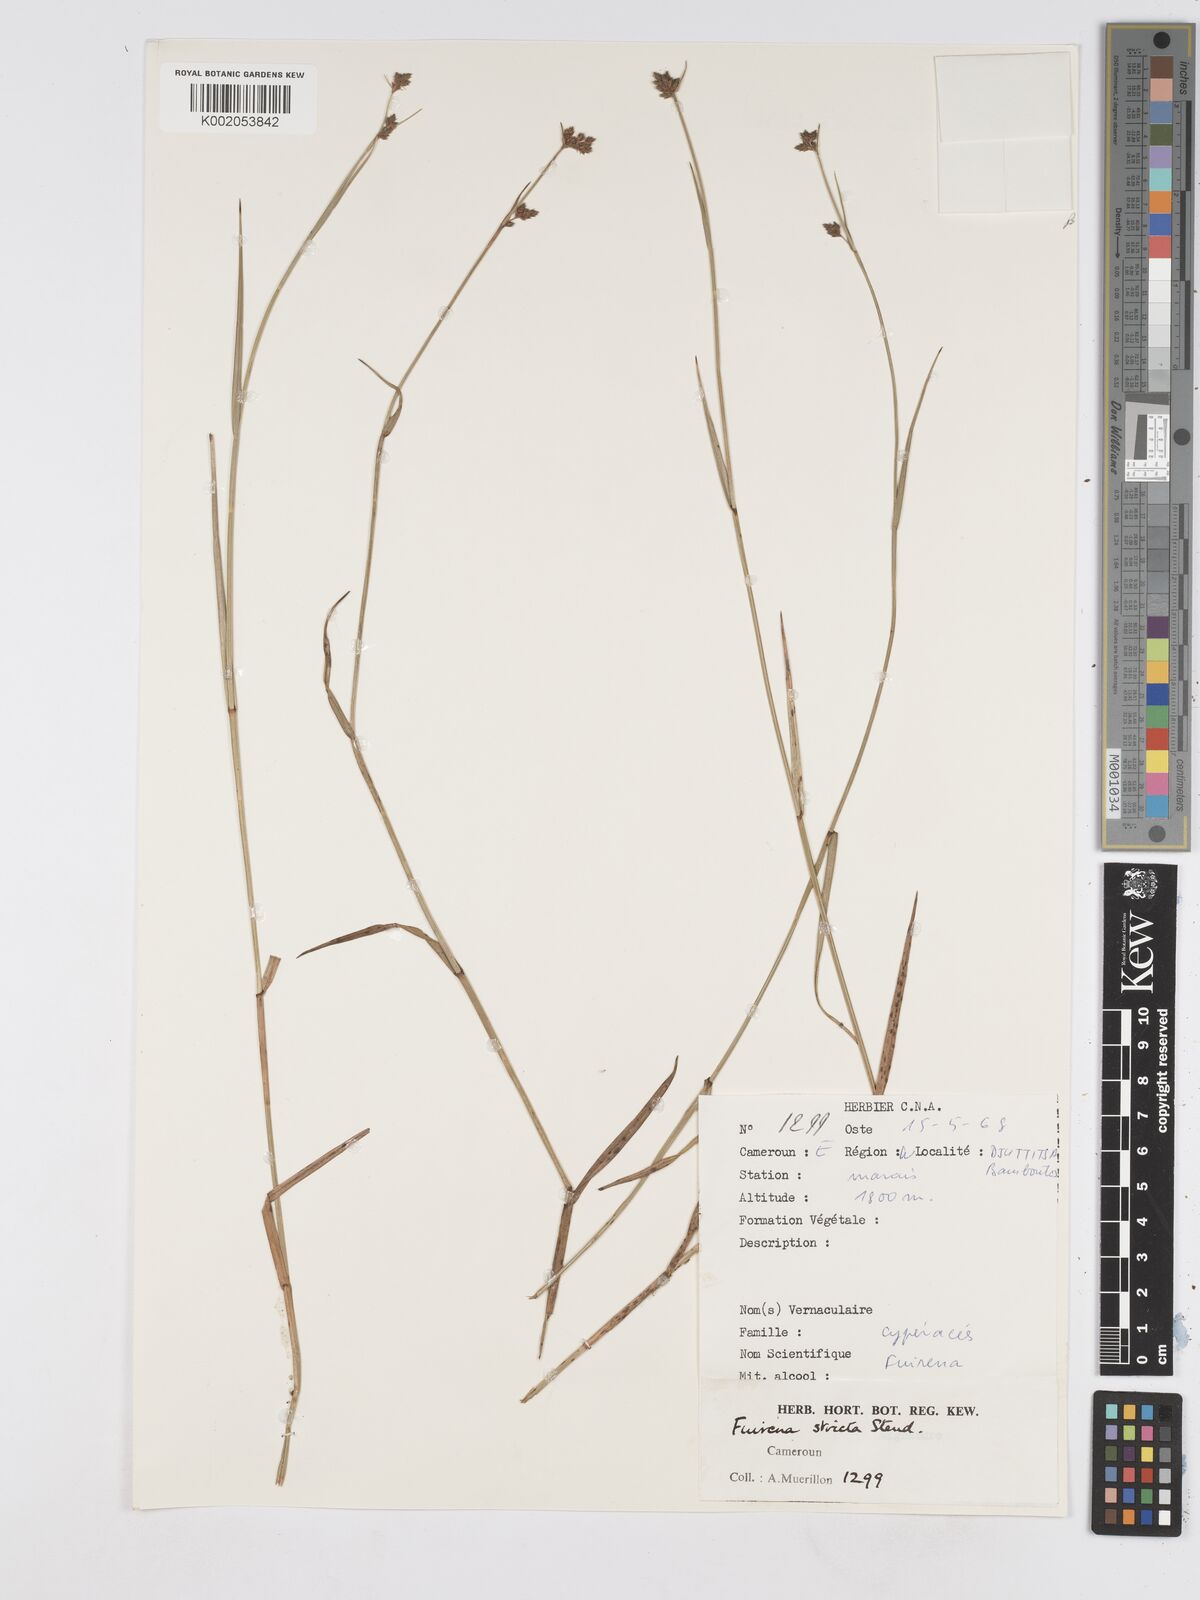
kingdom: Plantae
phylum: Tracheophyta
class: Liliopsida
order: Poales
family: Cyperaceae
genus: Fuirena
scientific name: Fuirena stricta
